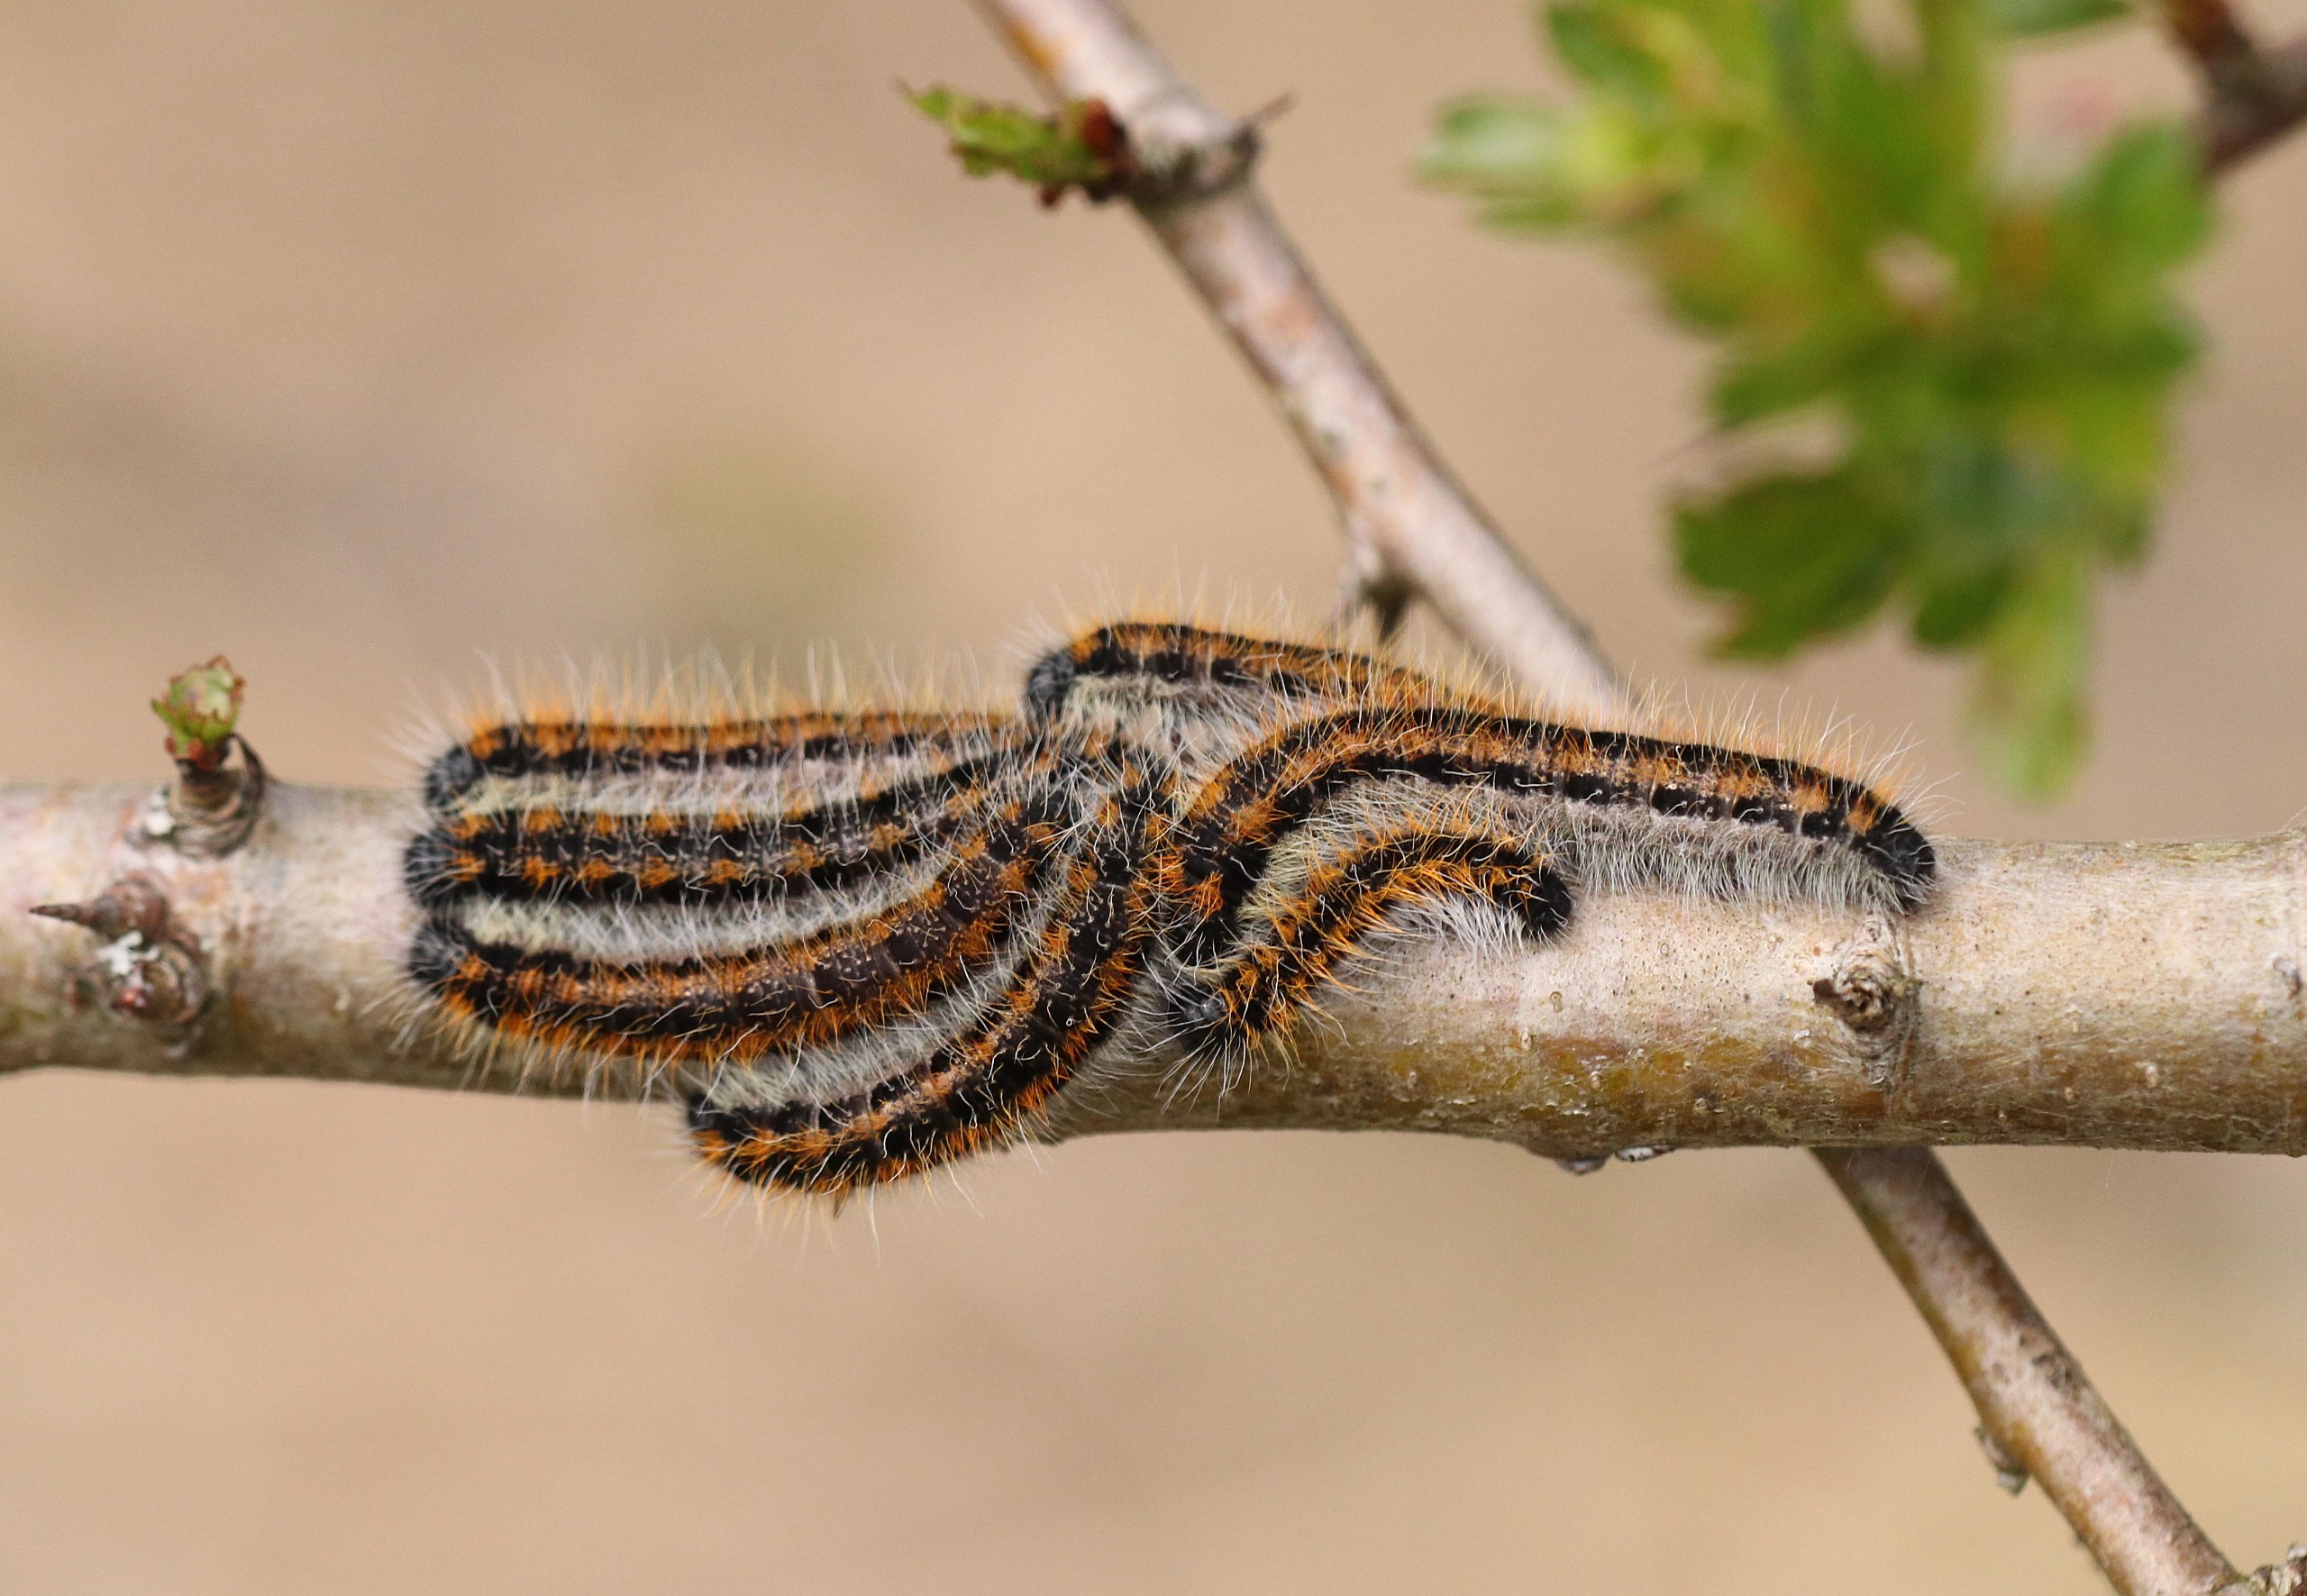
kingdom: Animalia
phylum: Arthropoda
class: Insecta
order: Lepidoptera
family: Pieridae
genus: Aporia
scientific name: Aporia crataegi
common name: Sortåret hvidvinge
